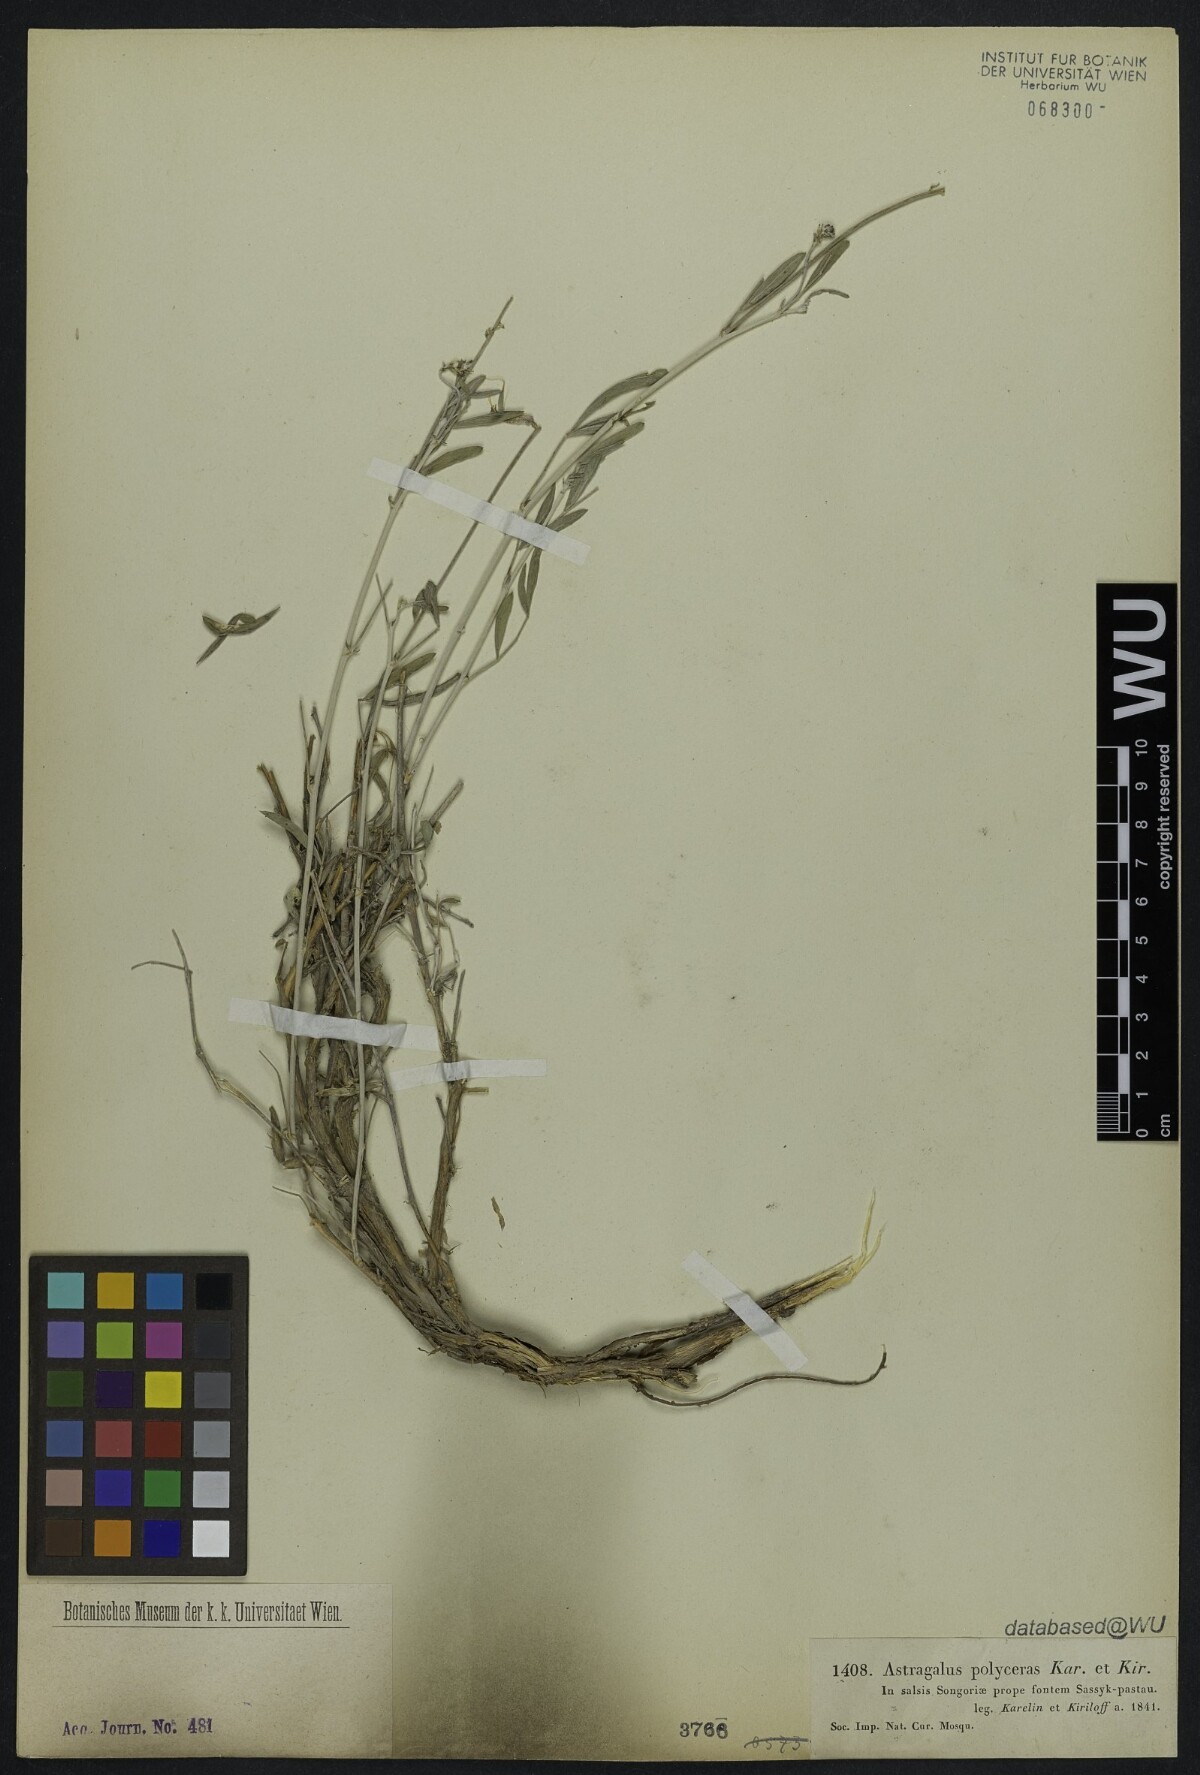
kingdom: Plantae
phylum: Tracheophyta
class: Magnoliopsida
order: Fabales
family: Fabaceae
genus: Astragalus
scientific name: Astragalus polyceras
